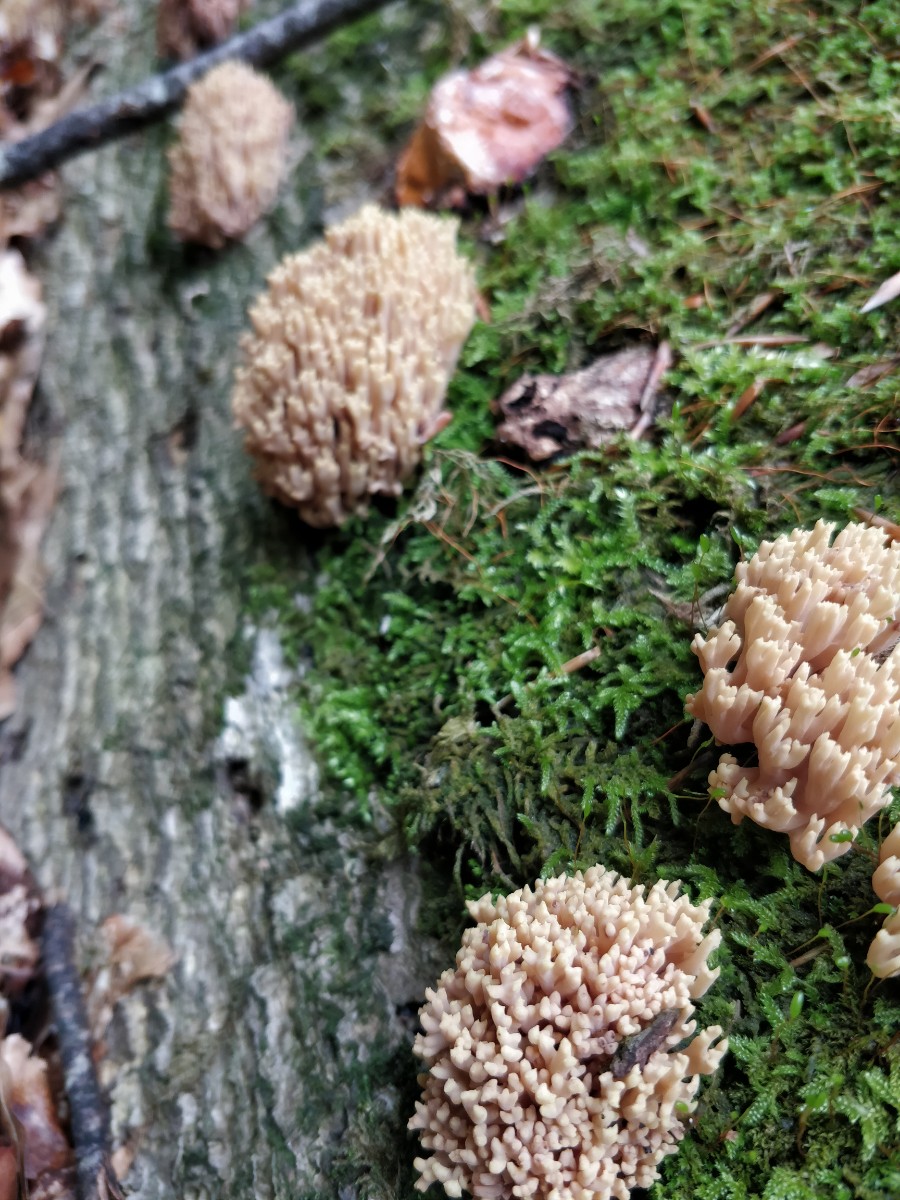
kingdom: Fungi
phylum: Basidiomycota
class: Agaricomycetes
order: Gomphales
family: Gomphaceae
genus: Ramaria
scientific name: Ramaria stricta
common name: rank koralsvamp
